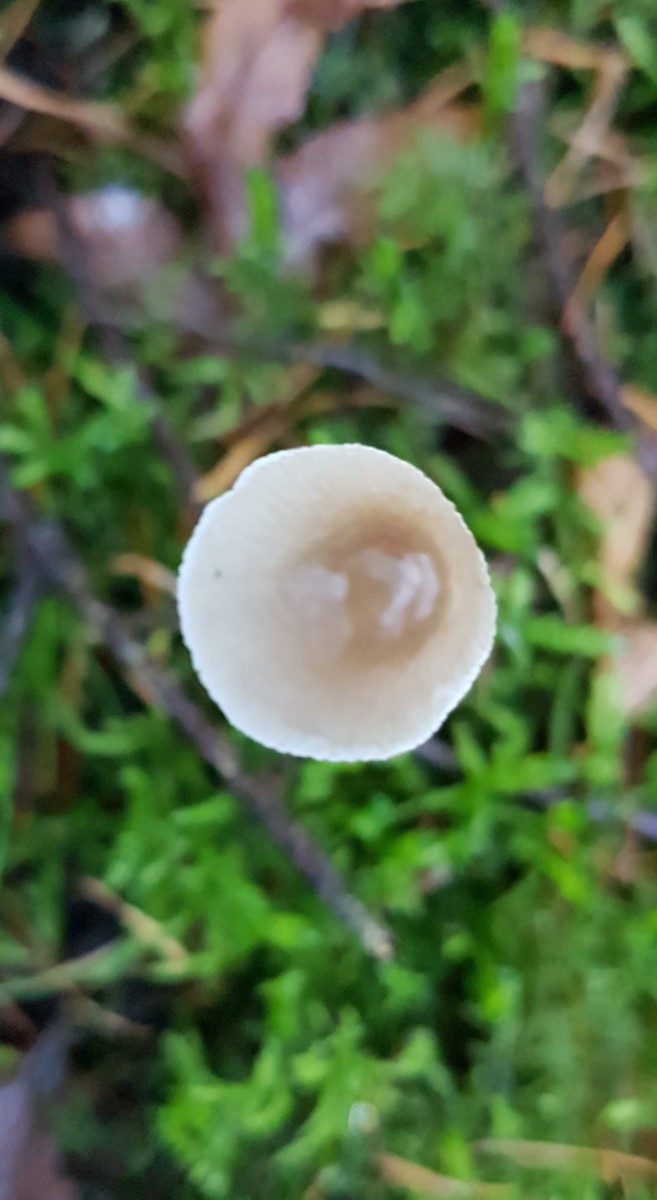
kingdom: Fungi
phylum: Basidiomycota
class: Agaricomycetes
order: Agaricales
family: Mycenaceae
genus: Mycena
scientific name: Mycena
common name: huesvamp
